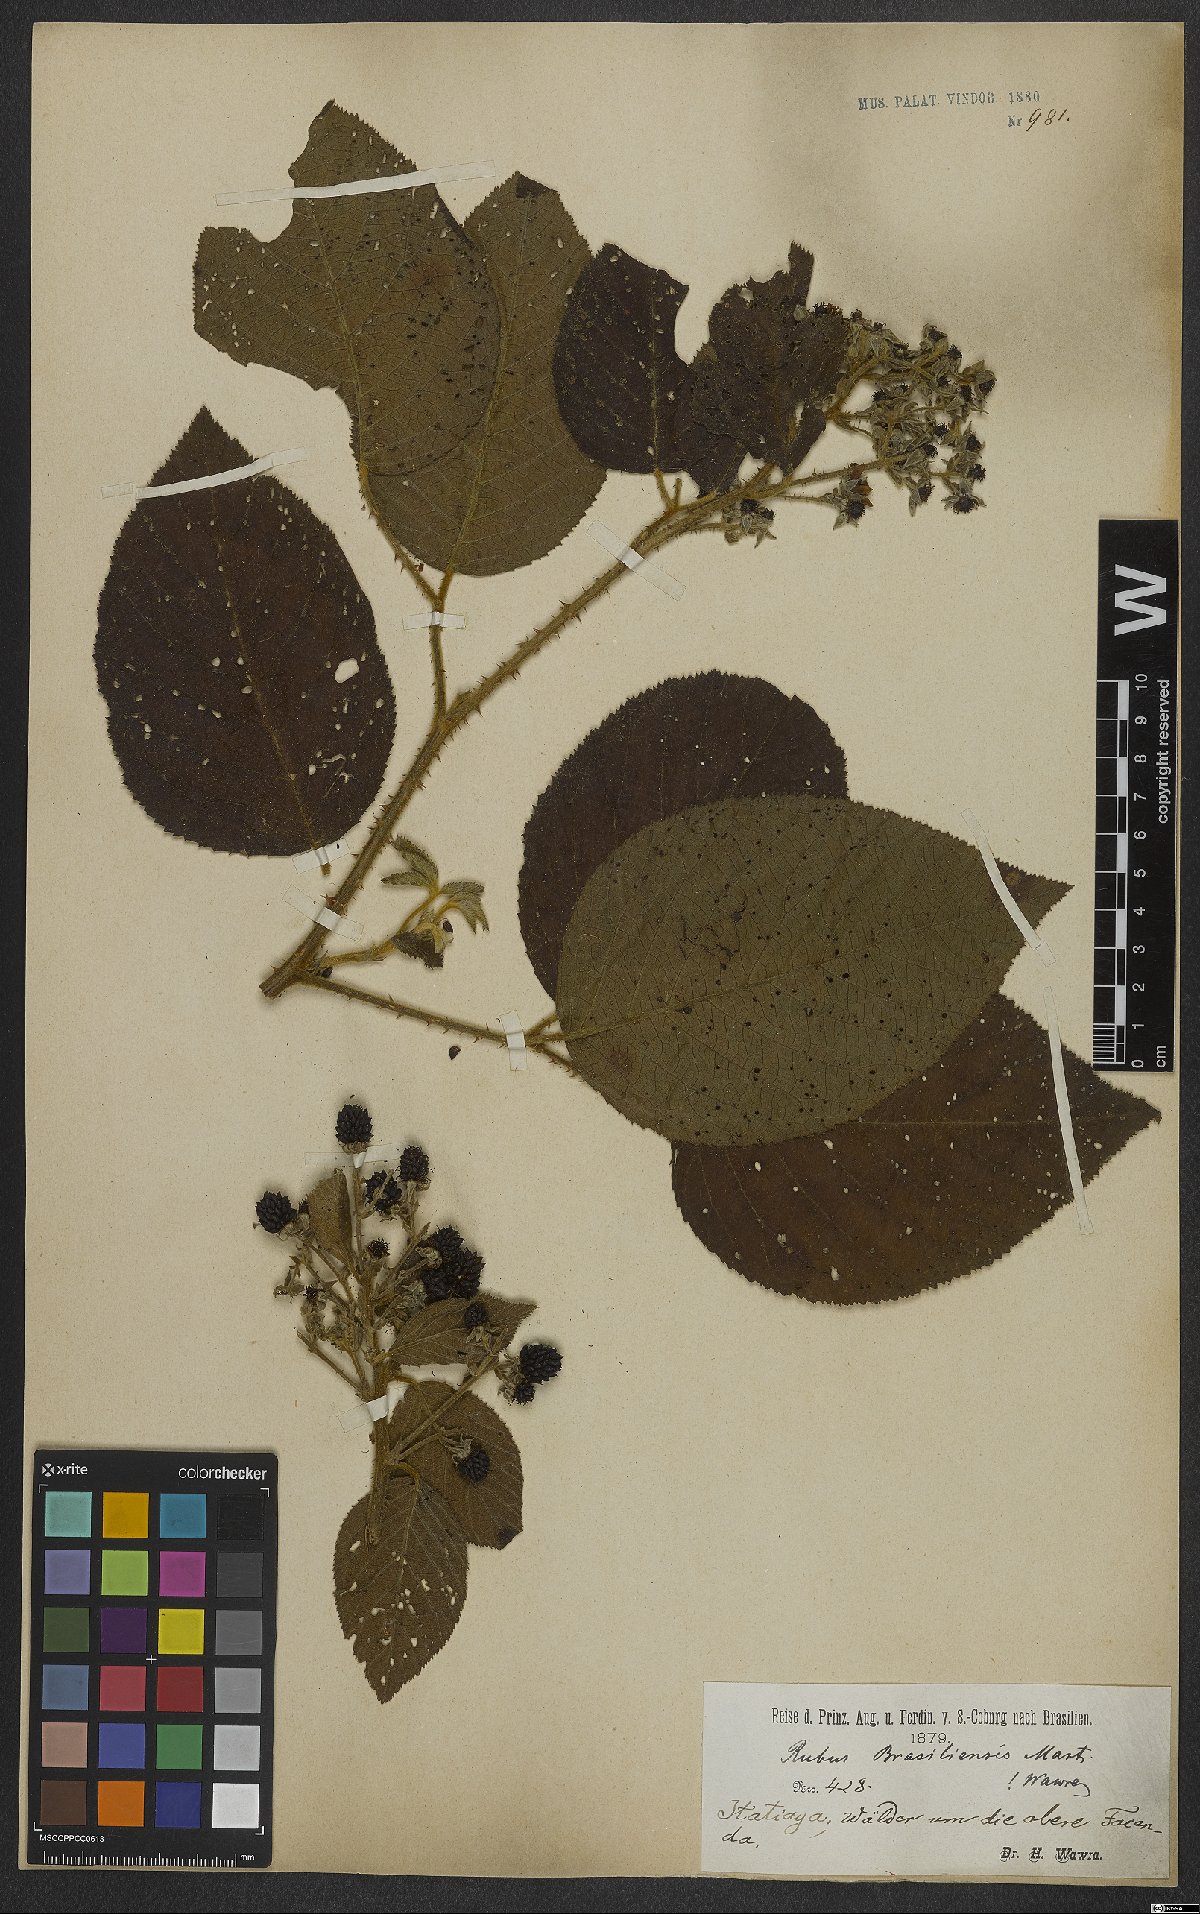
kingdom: Plantae
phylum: Tracheophyta
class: Magnoliopsida
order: Rosales
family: Rosaceae
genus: Rubus
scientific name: Rubus brasiliensis
